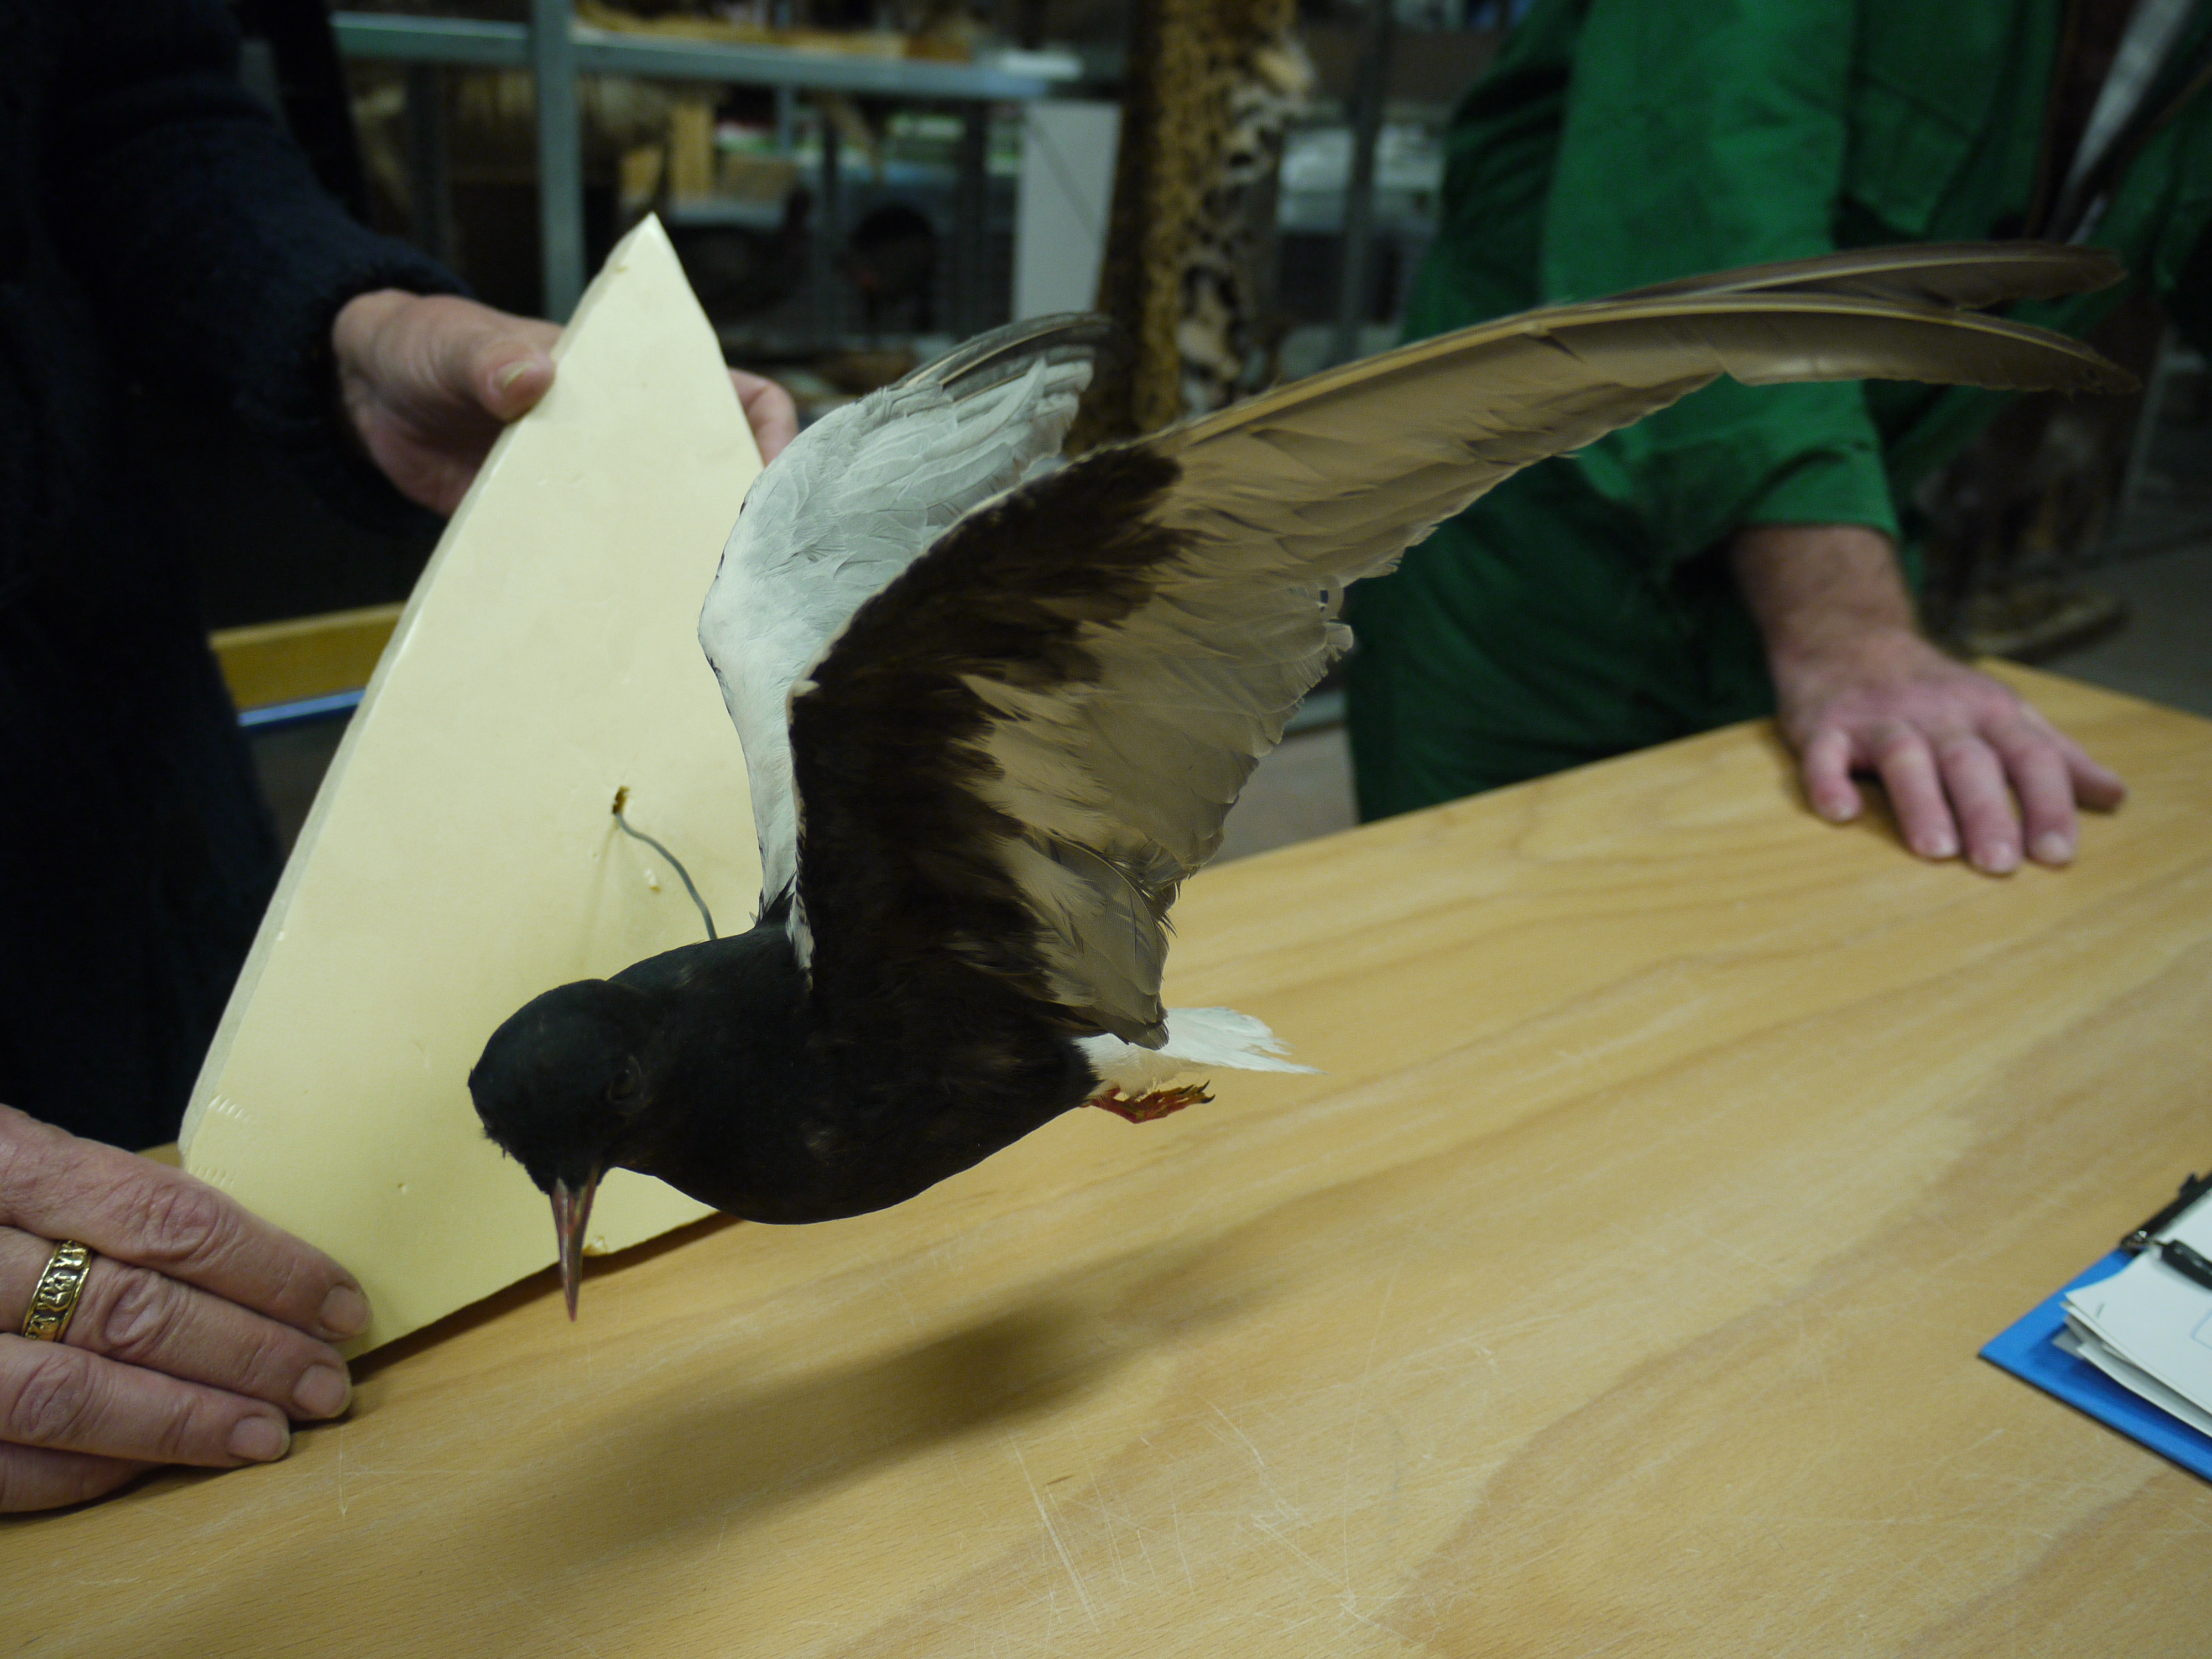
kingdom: Animalia
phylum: Chordata
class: Aves
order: Charadriiformes
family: Laridae
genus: Chlidonias
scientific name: Chlidonias leucopterus
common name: White-winged tern
